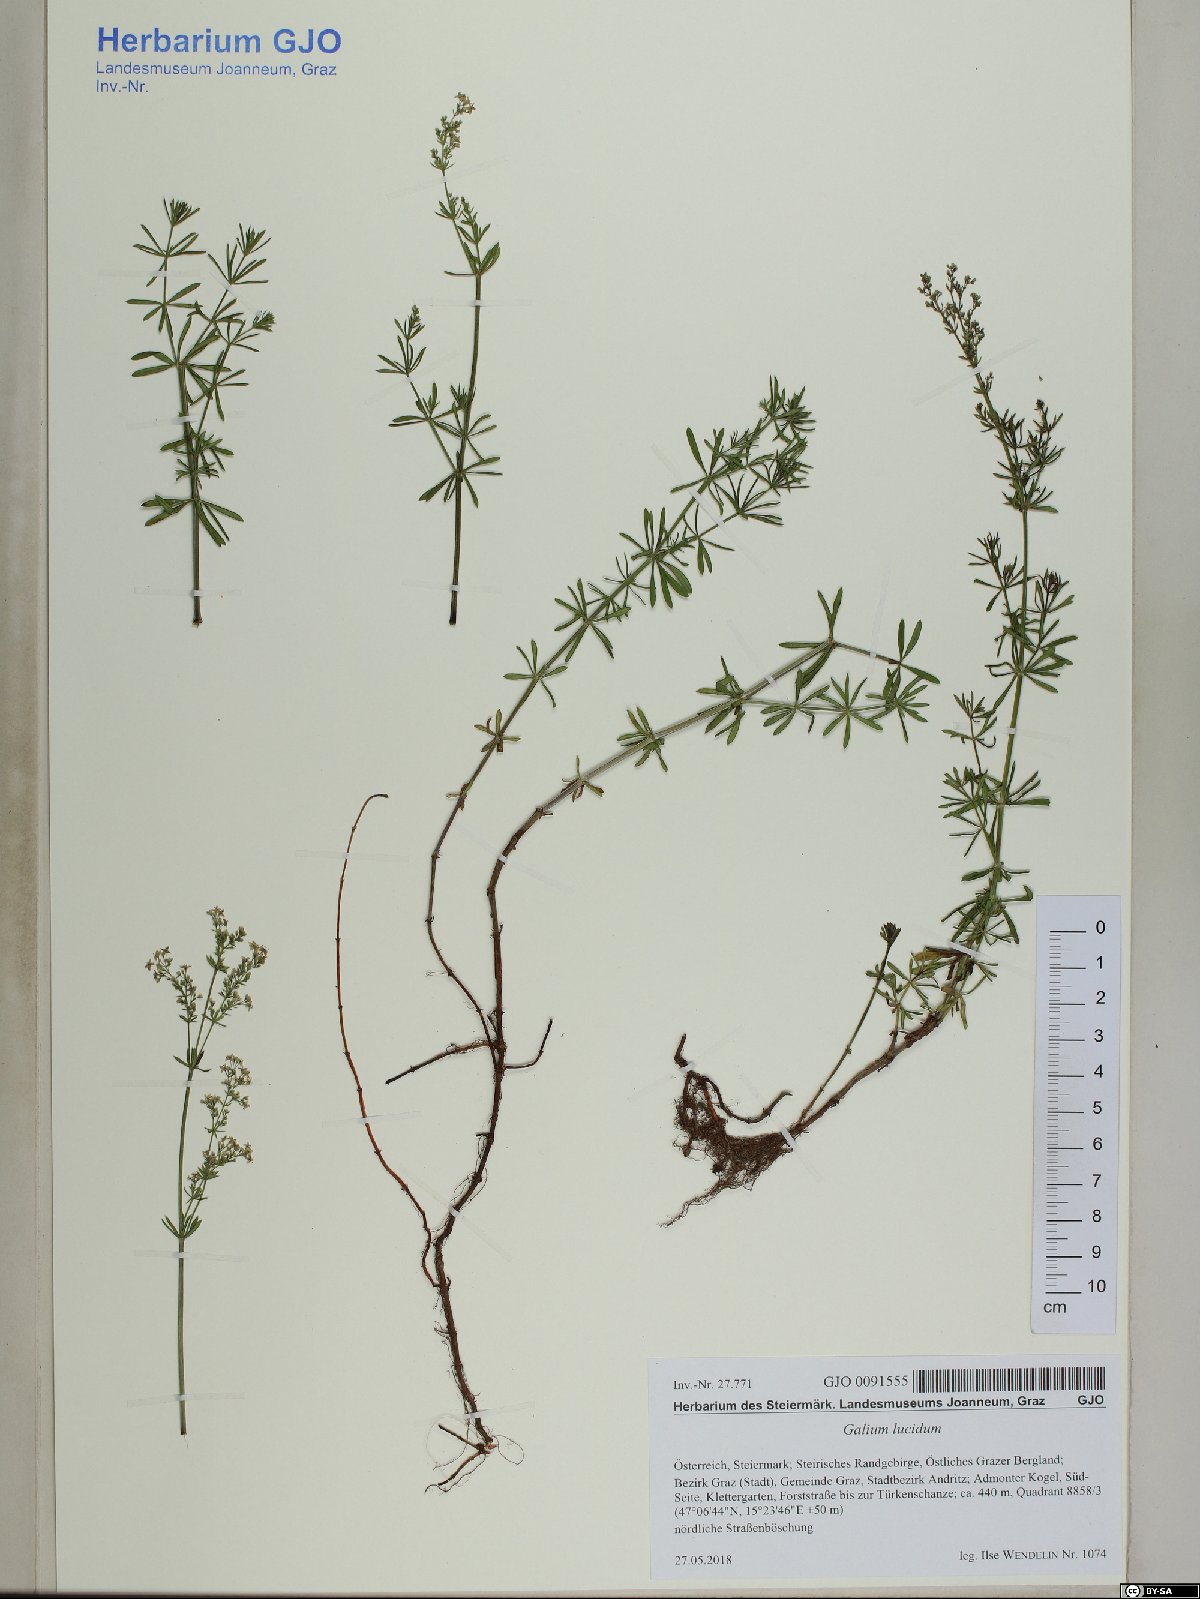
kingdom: Plantae
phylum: Tracheophyta
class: Magnoliopsida
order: Gentianales
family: Rubiaceae
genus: Galium
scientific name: Galium lucidum
